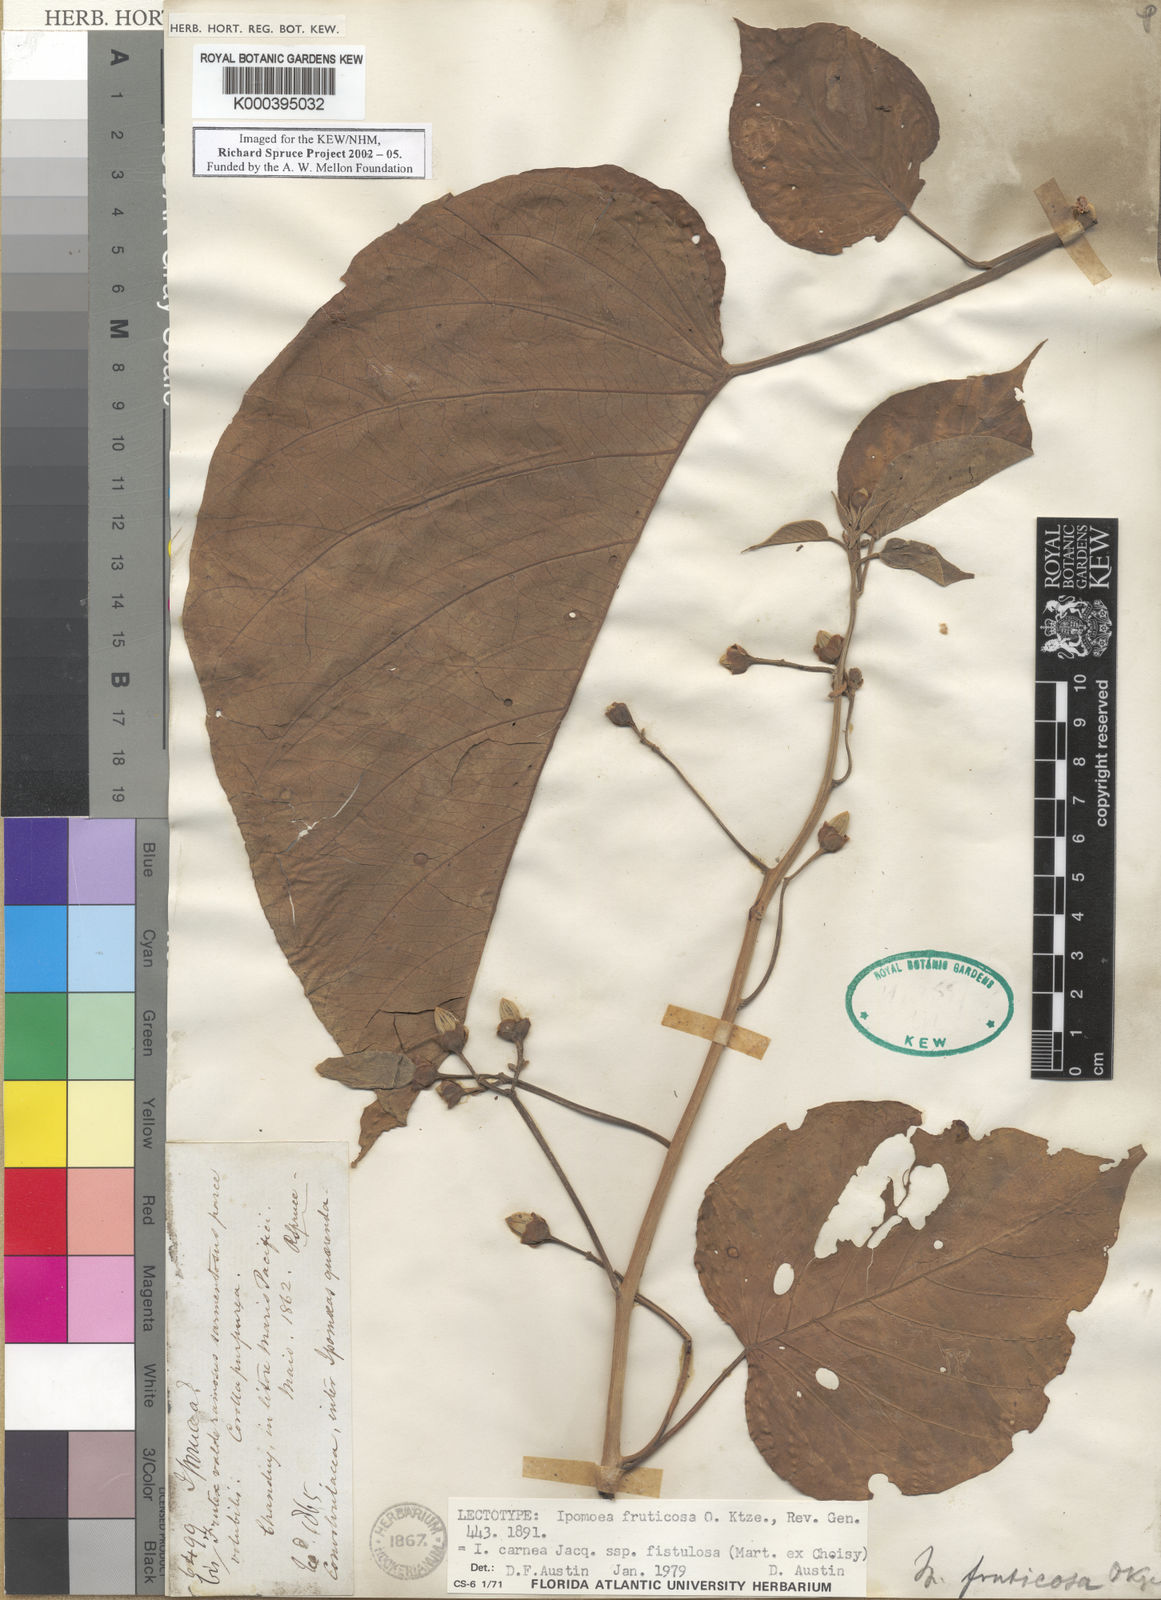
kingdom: Plantae
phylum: Tracheophyta
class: Magnoliopsida
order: Solanales
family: Convolvulaceae
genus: Ipomoea
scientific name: Ipomoea carnea
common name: Morning-glory
